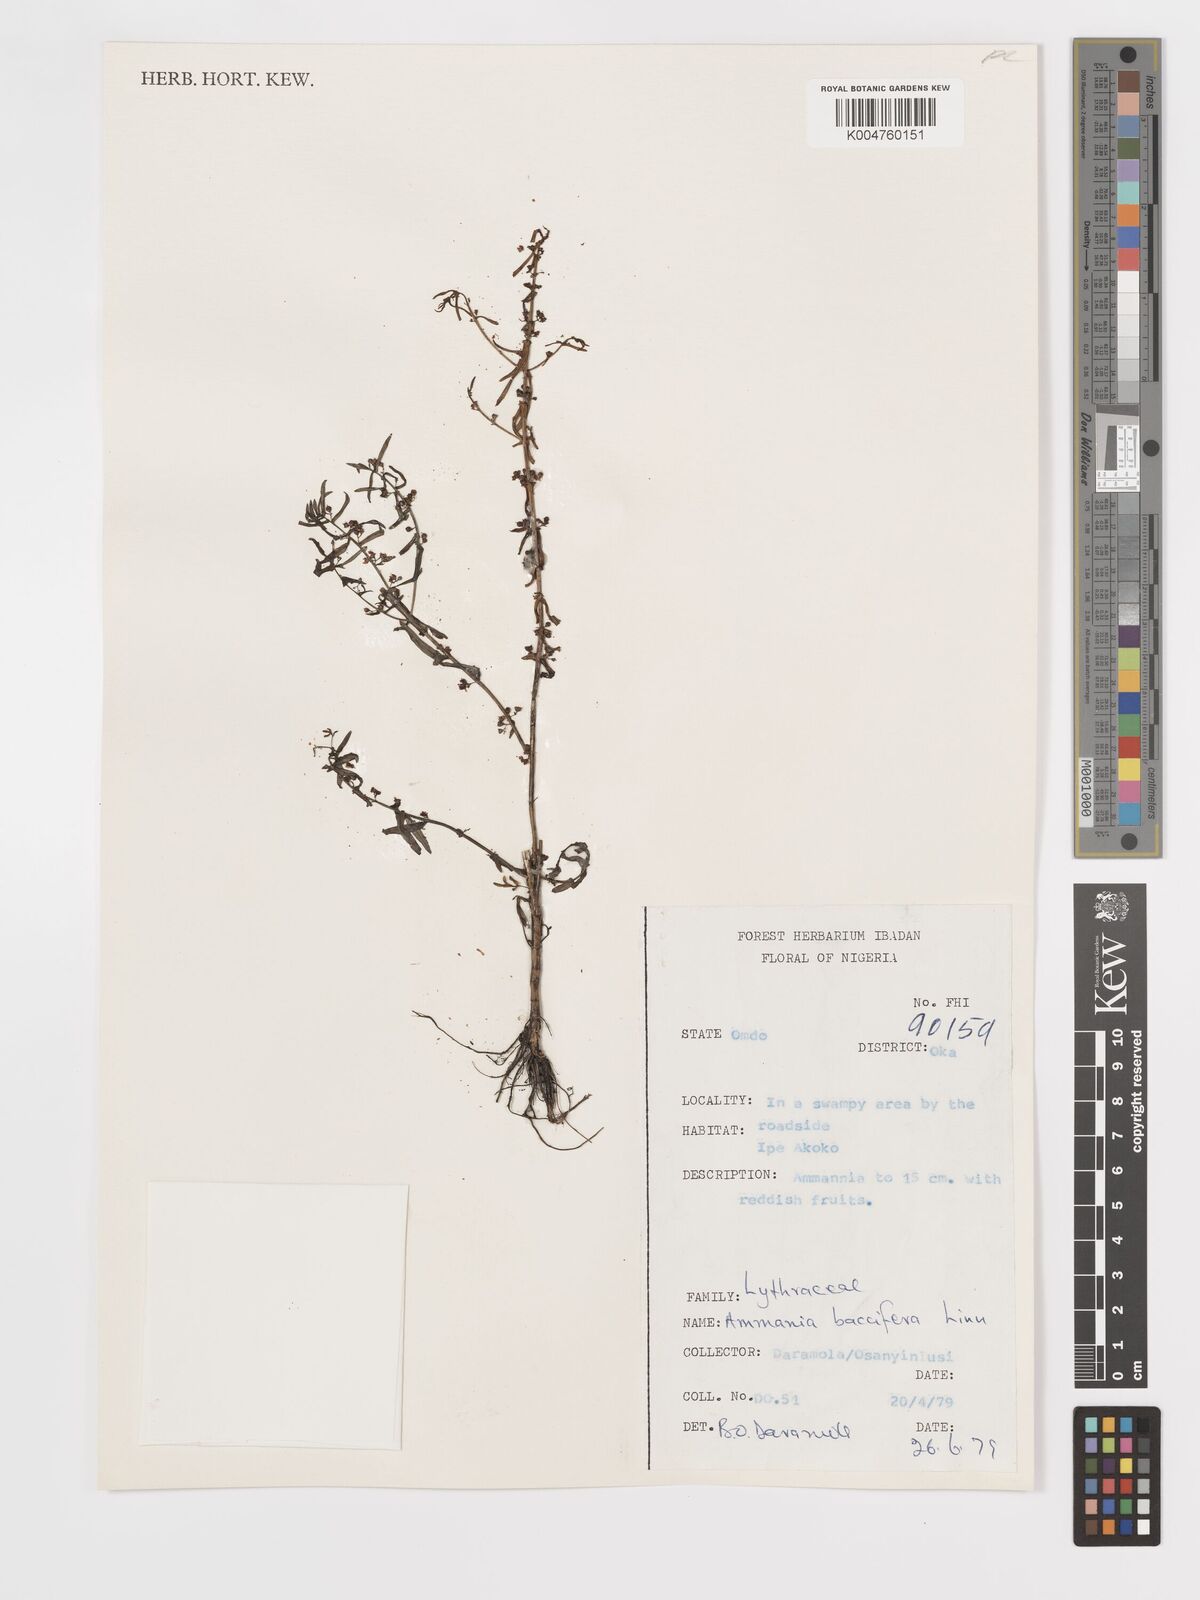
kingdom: Plantae
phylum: Tracheophyta
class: Magnoliopsida
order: Myrtales
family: Lythraceae
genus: Ammannia
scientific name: Ammannia
